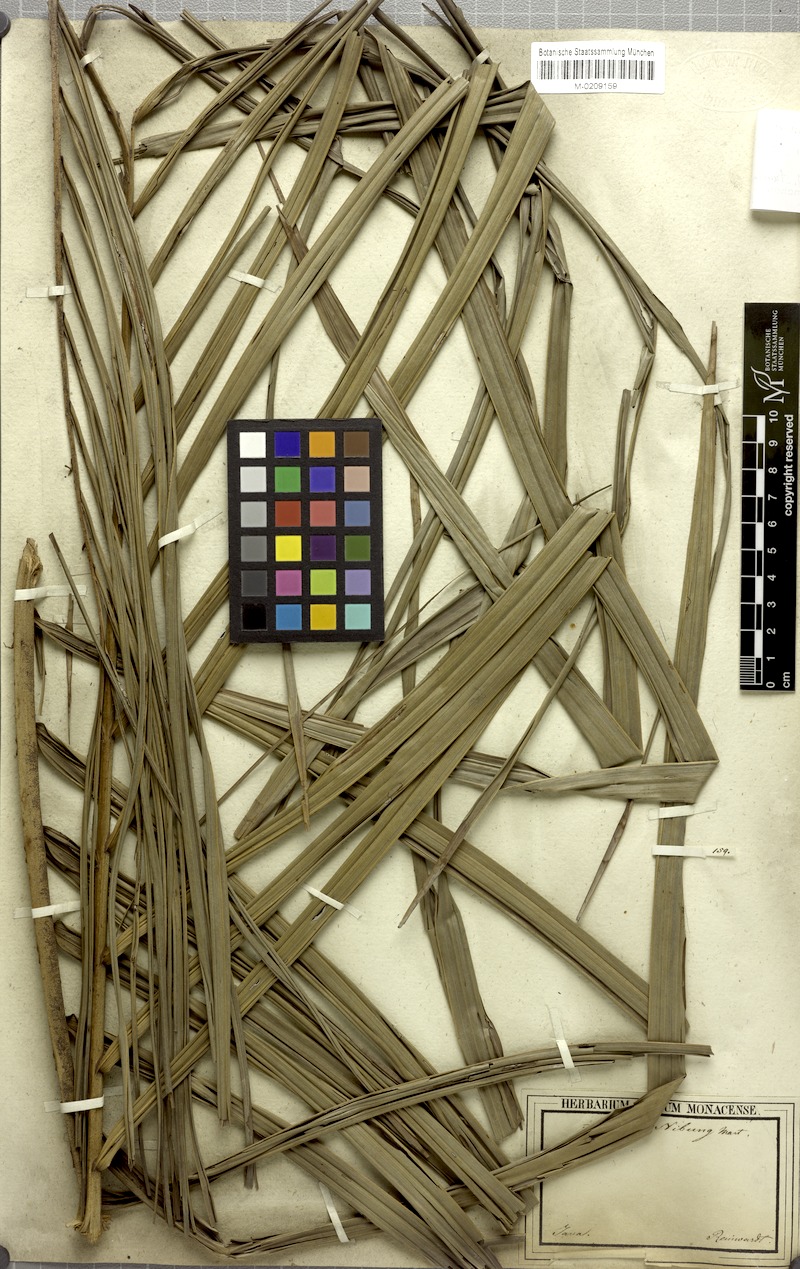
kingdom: Plantae
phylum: Tracheophyta
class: Liliopsida
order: Arecales
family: Arecaceae
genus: Oncosperma
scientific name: Oncosperma horridum
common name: Thorny palm
